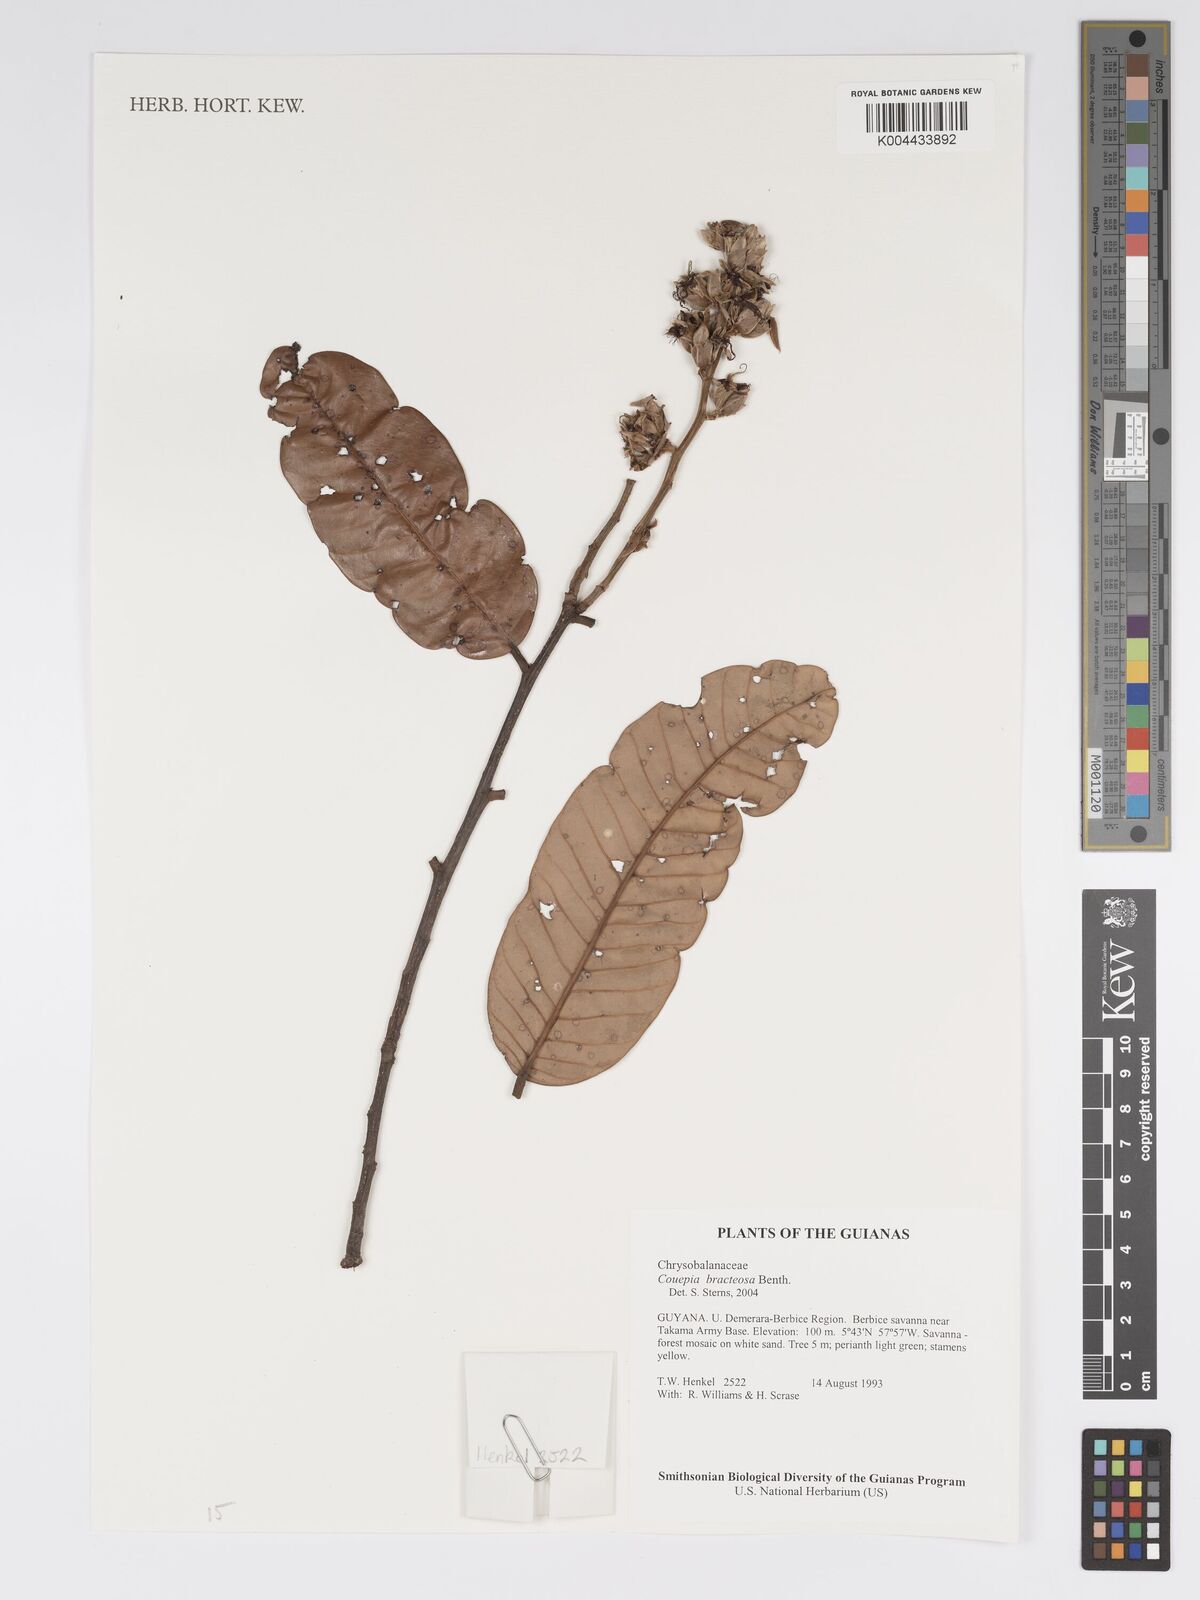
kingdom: Plantae
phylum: Tracheophyta
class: Magnoliopsida
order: Malpighiales
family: Chrysobalanaceae
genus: Couepia
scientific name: Couepia bracteosa
